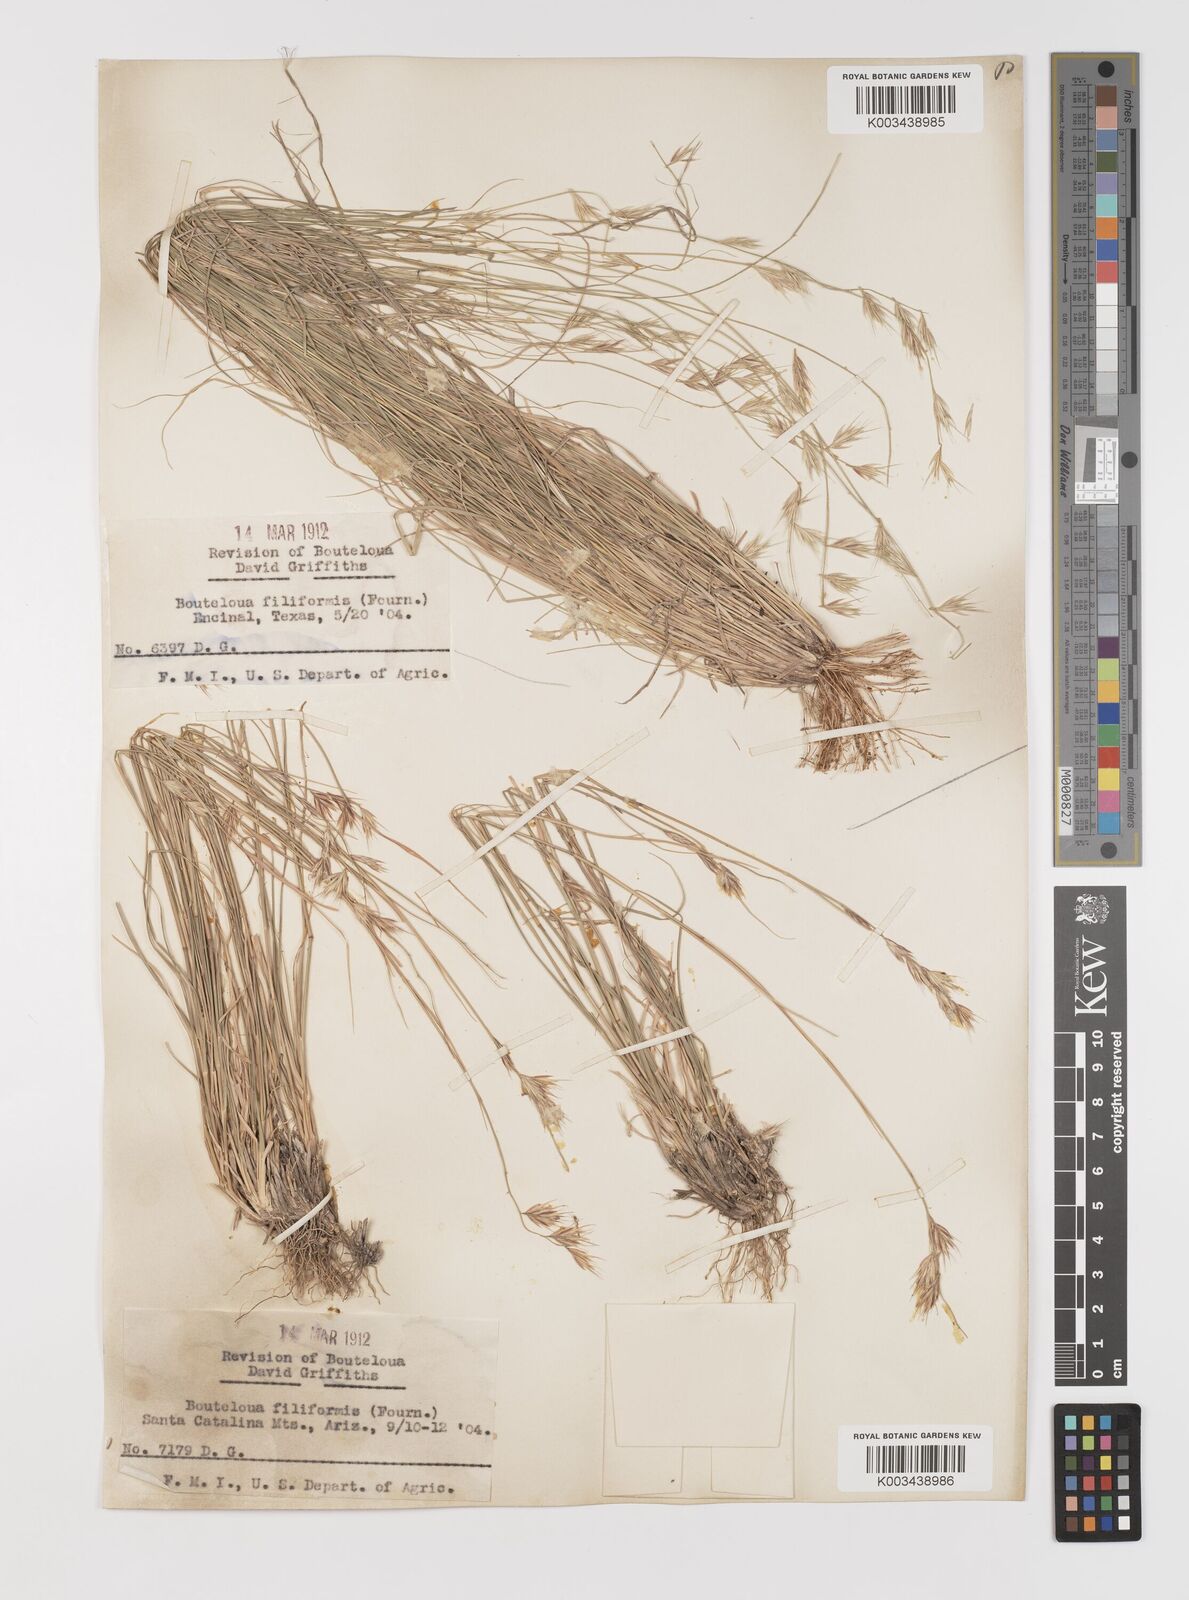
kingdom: Plantae
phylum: Tracheophyta
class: Liliopsida
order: Poales
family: Poaceae
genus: Bouteloua
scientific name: Bouteloua repens
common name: Slender grama
